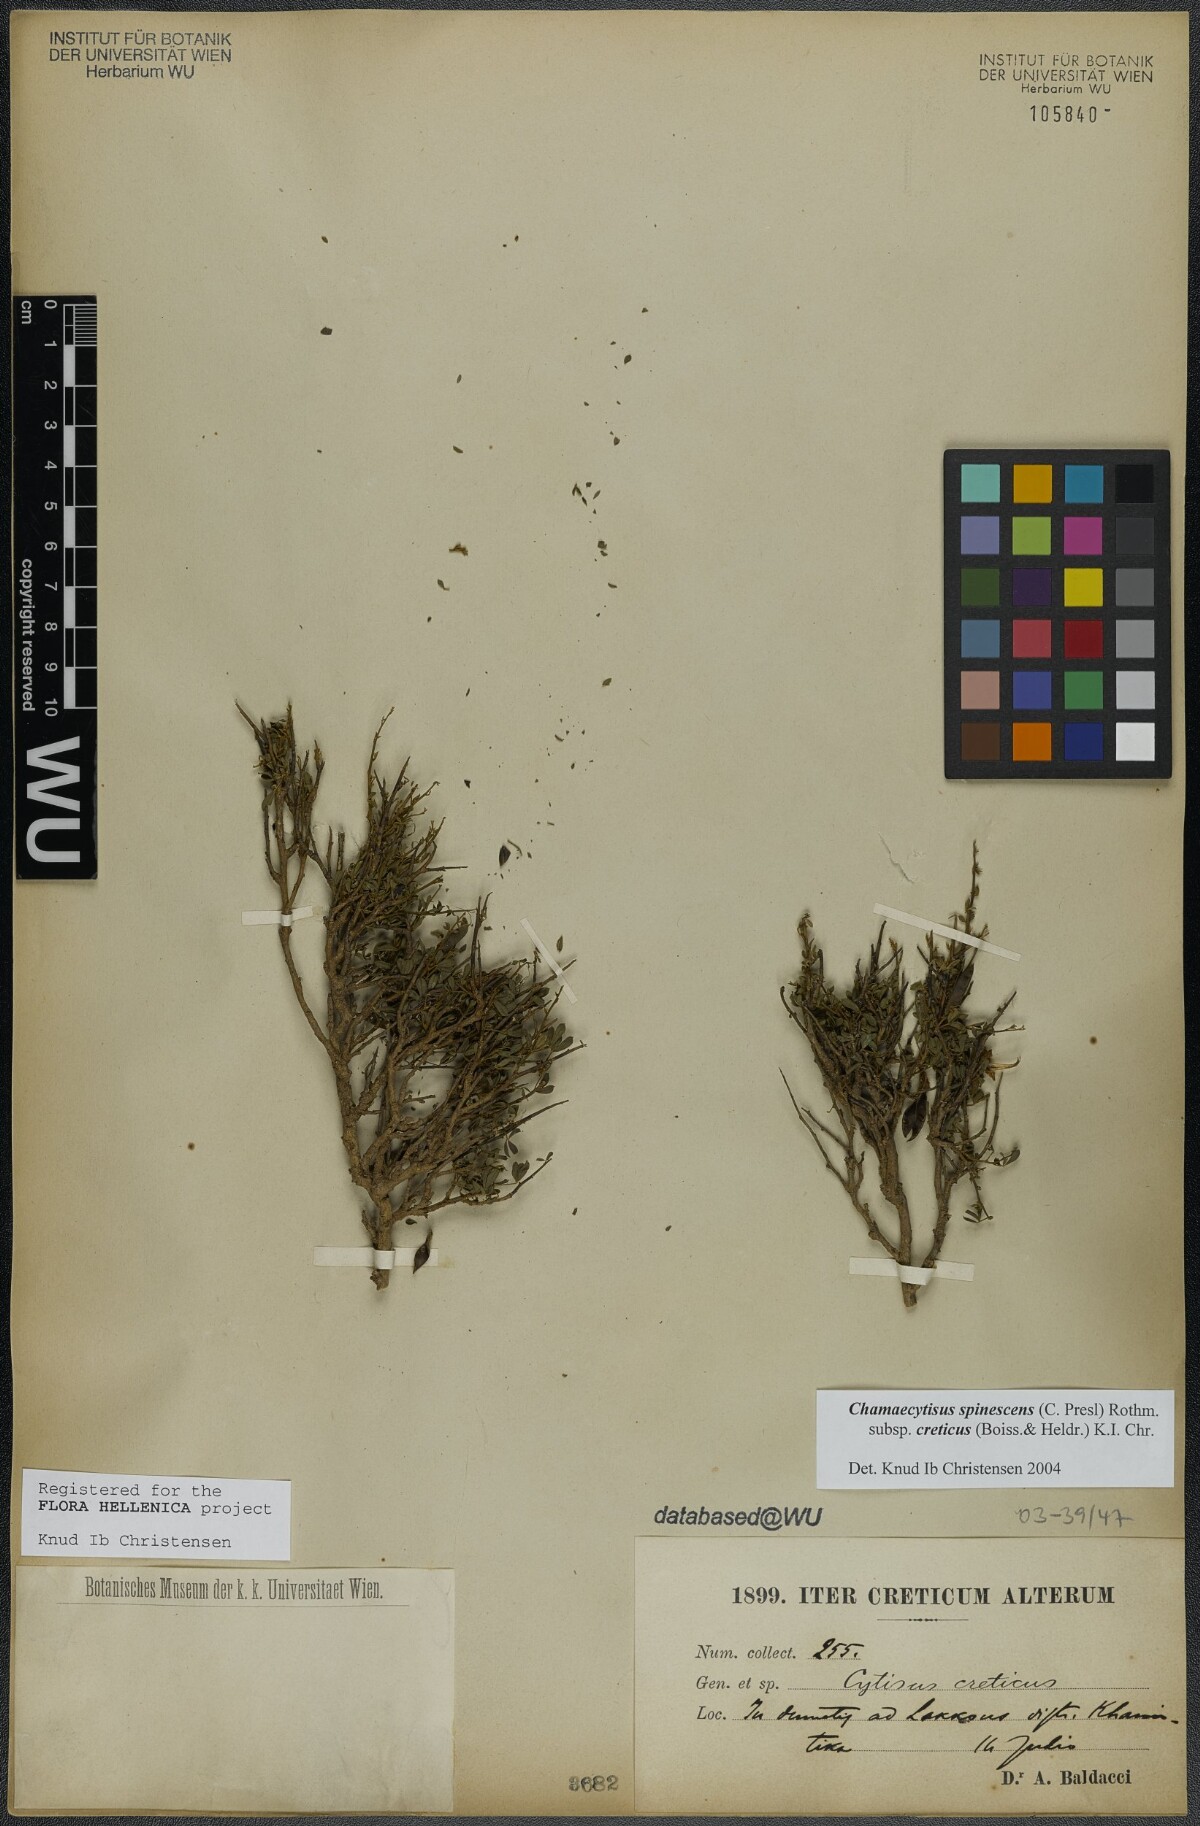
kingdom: Plantae
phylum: Tracheophyta
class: Magnoliopsida
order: Fabales
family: Fabaceae
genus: Chamaecytisus
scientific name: Chamaecytisus spinescens
